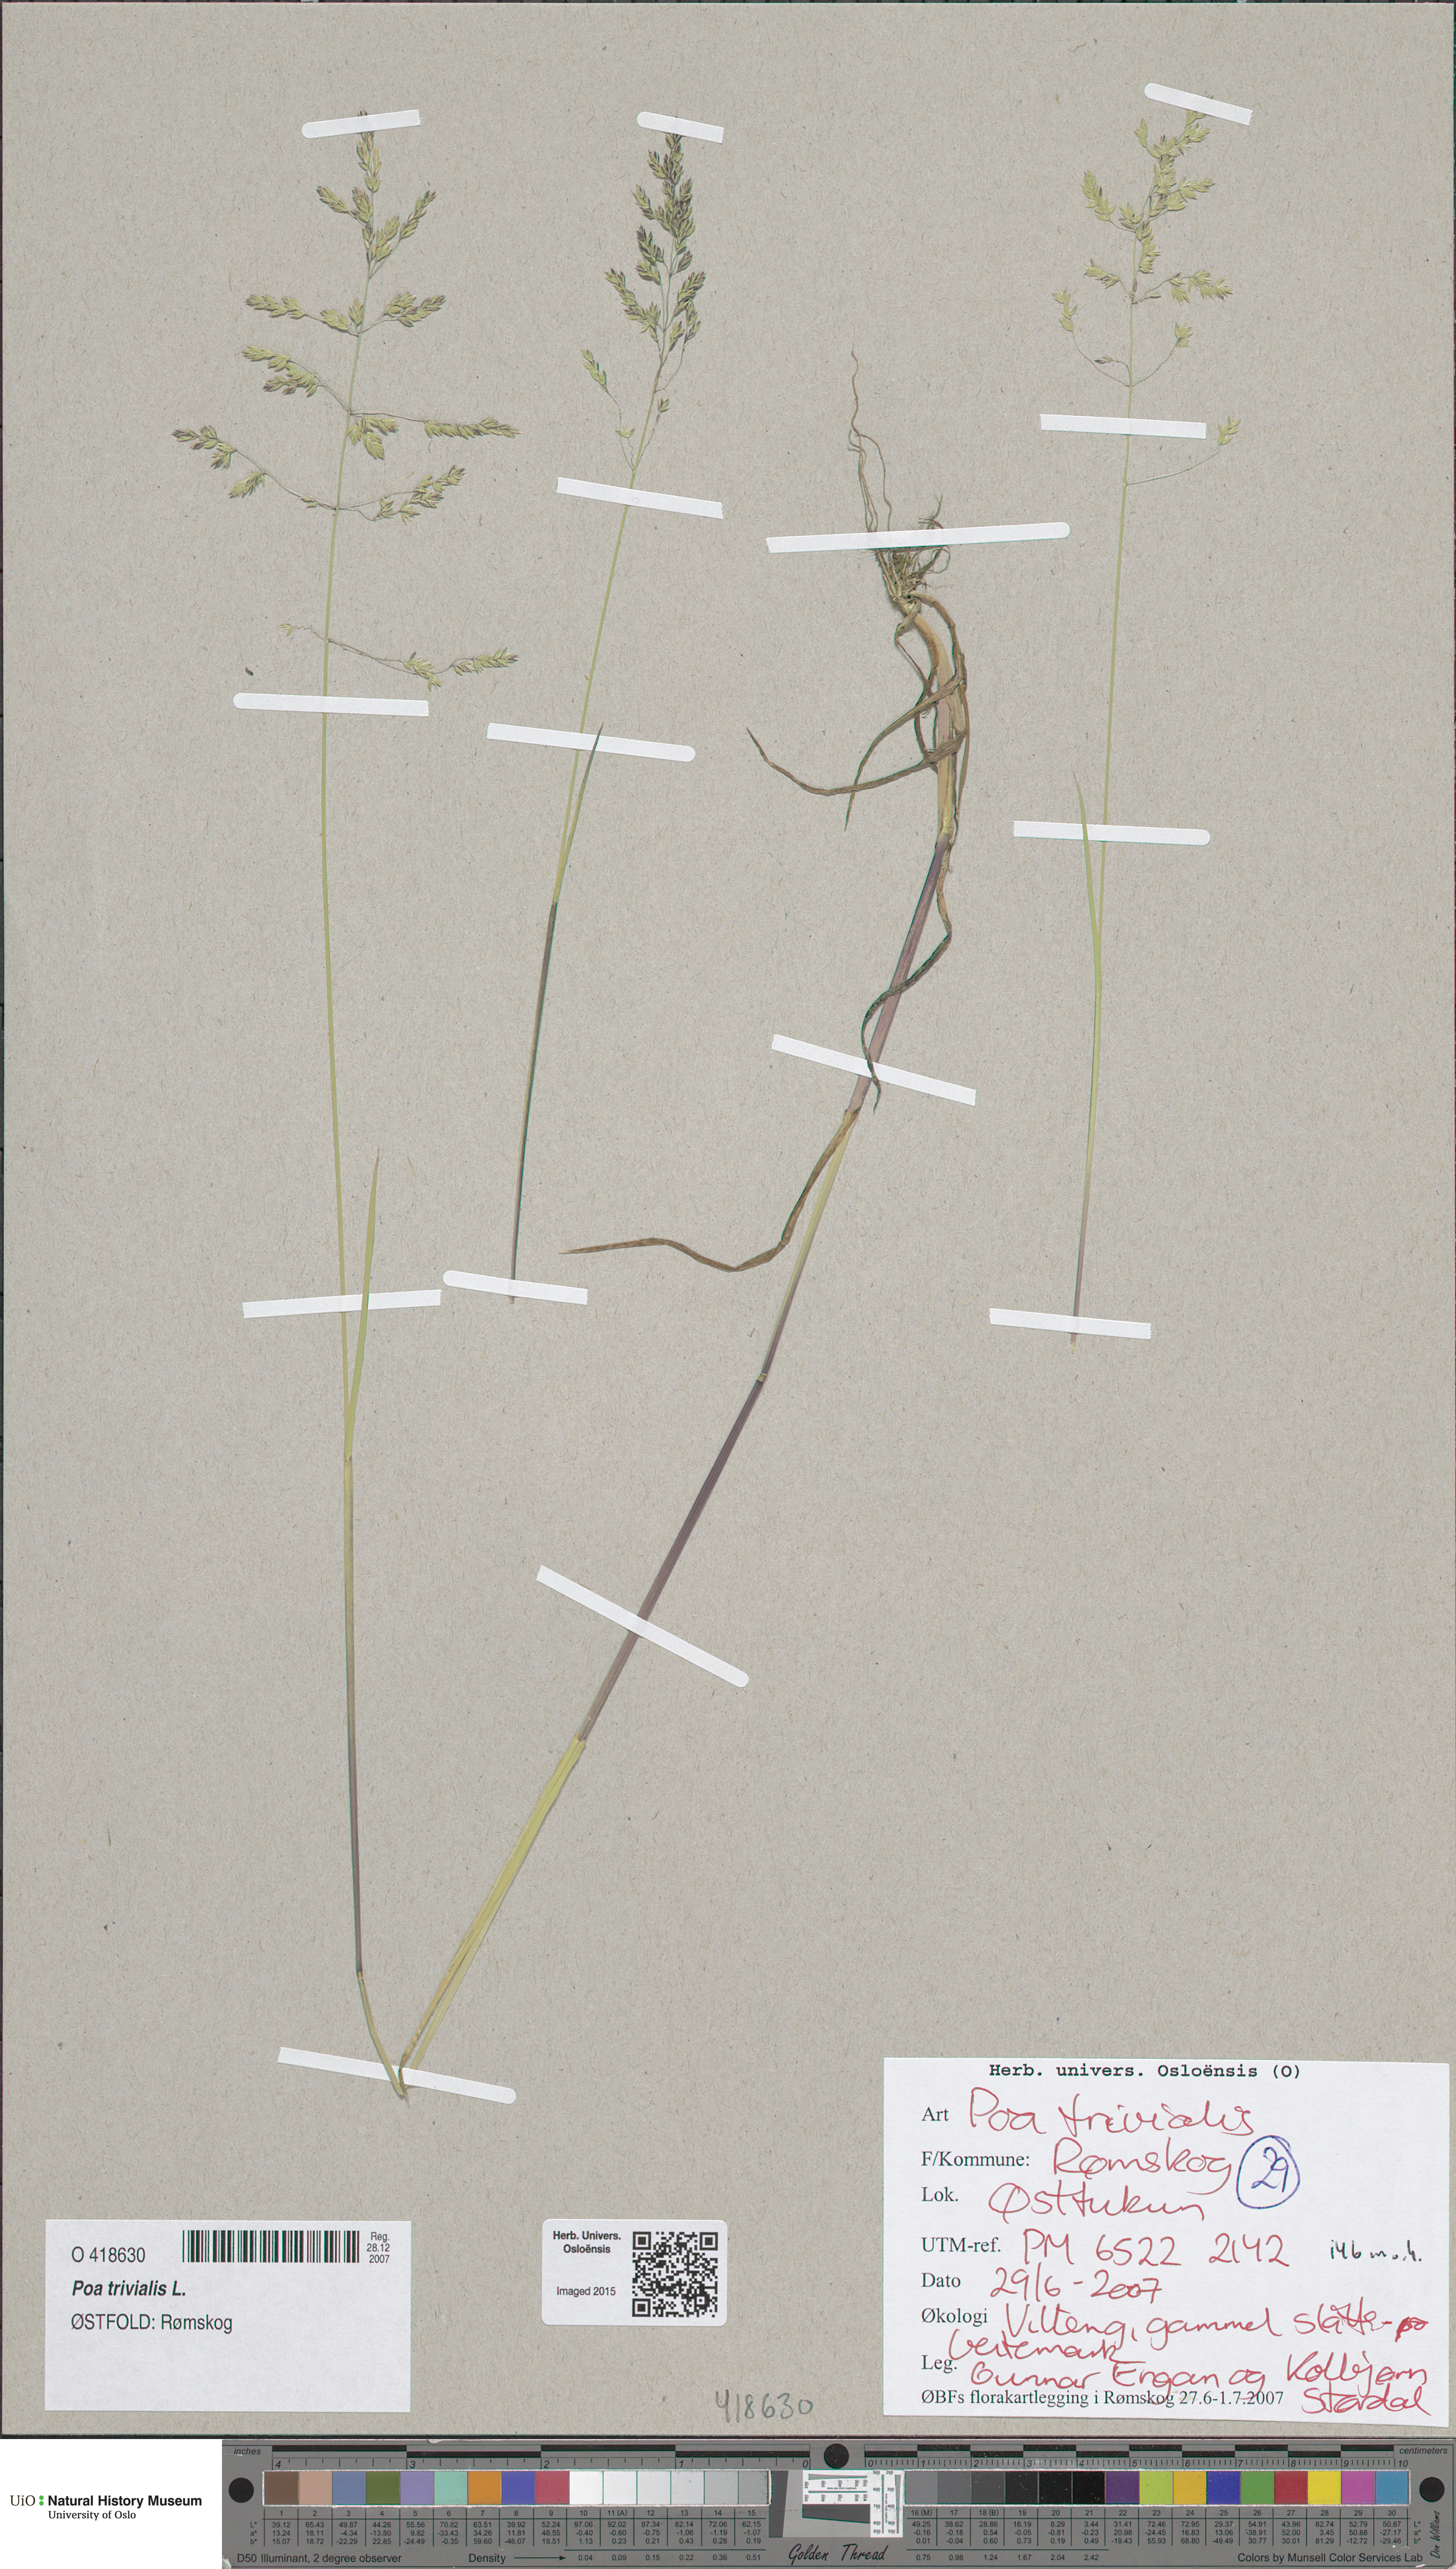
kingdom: Plantae
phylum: Tracheophyta
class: Liliopsida
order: Poales
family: Poaceae
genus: Poa
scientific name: Poa trivialis
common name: Rough bluegrass
